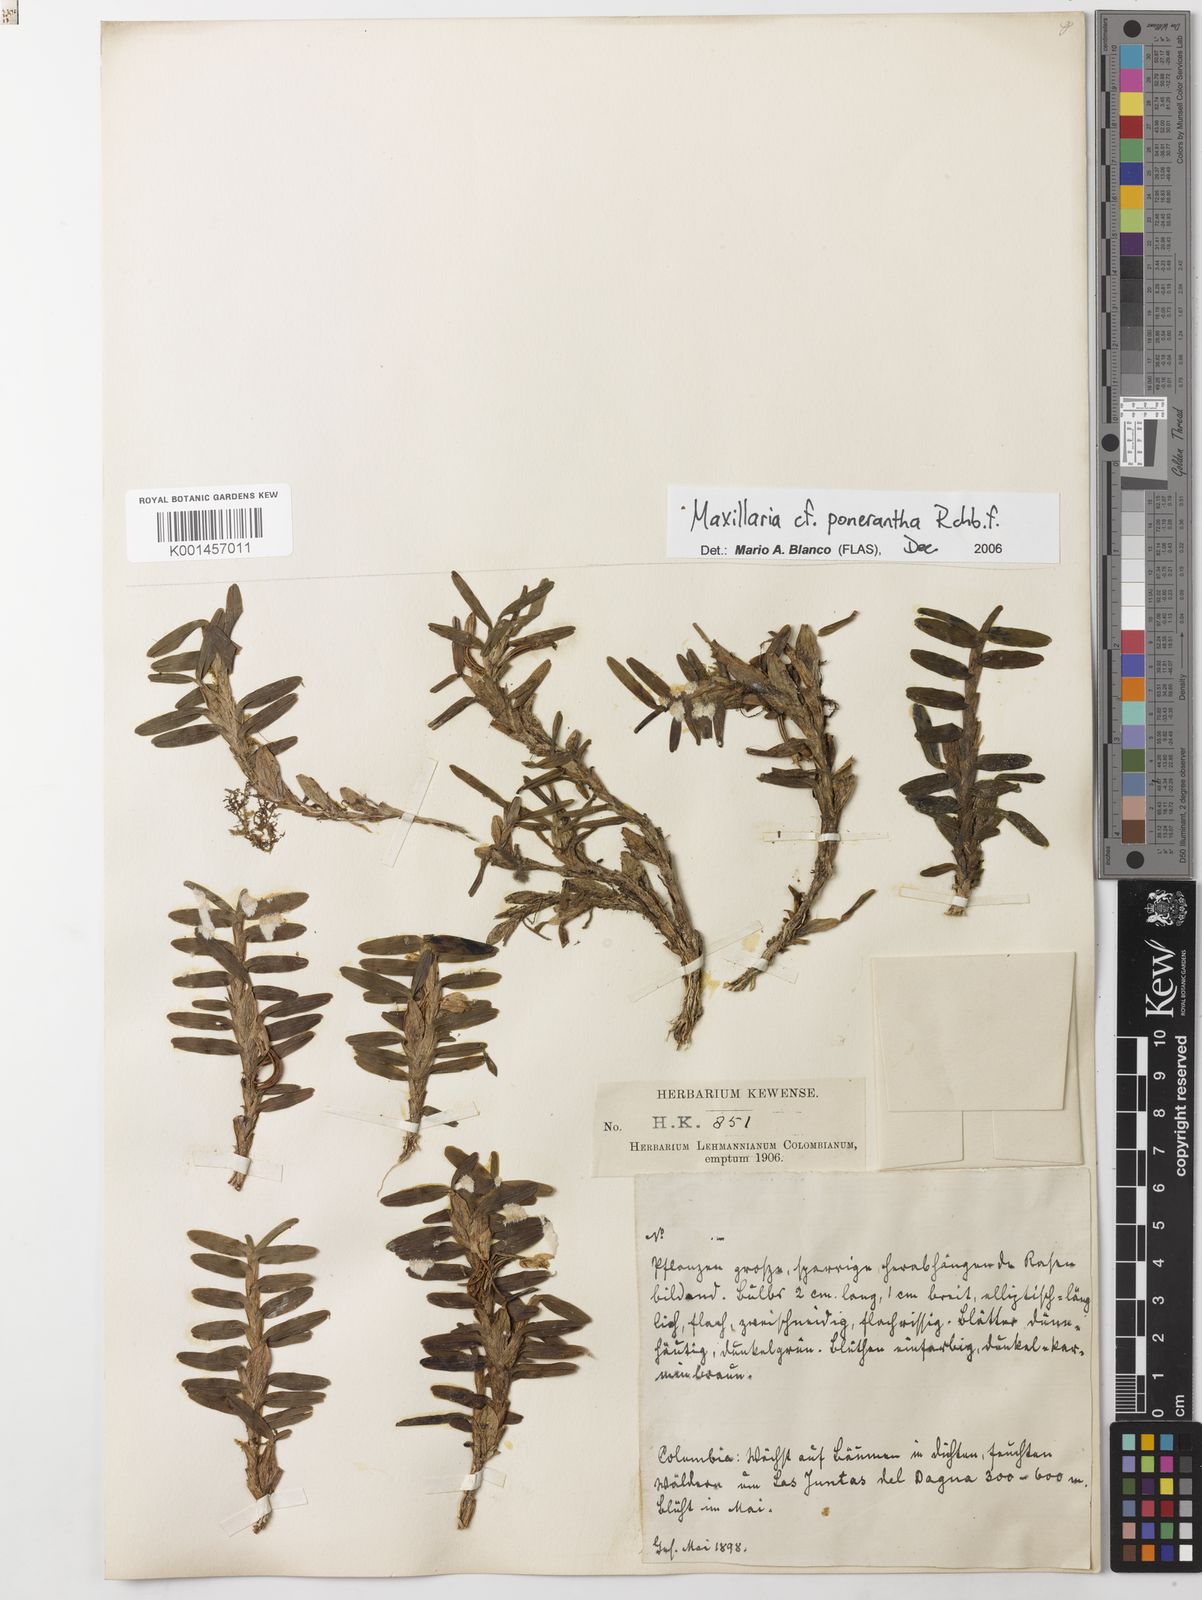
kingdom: Plantae
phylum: Tracheophyta
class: Liliopsida
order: Asparagales
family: Orchidaceae
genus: Maxillaria
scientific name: Maxillaria ponerantha
